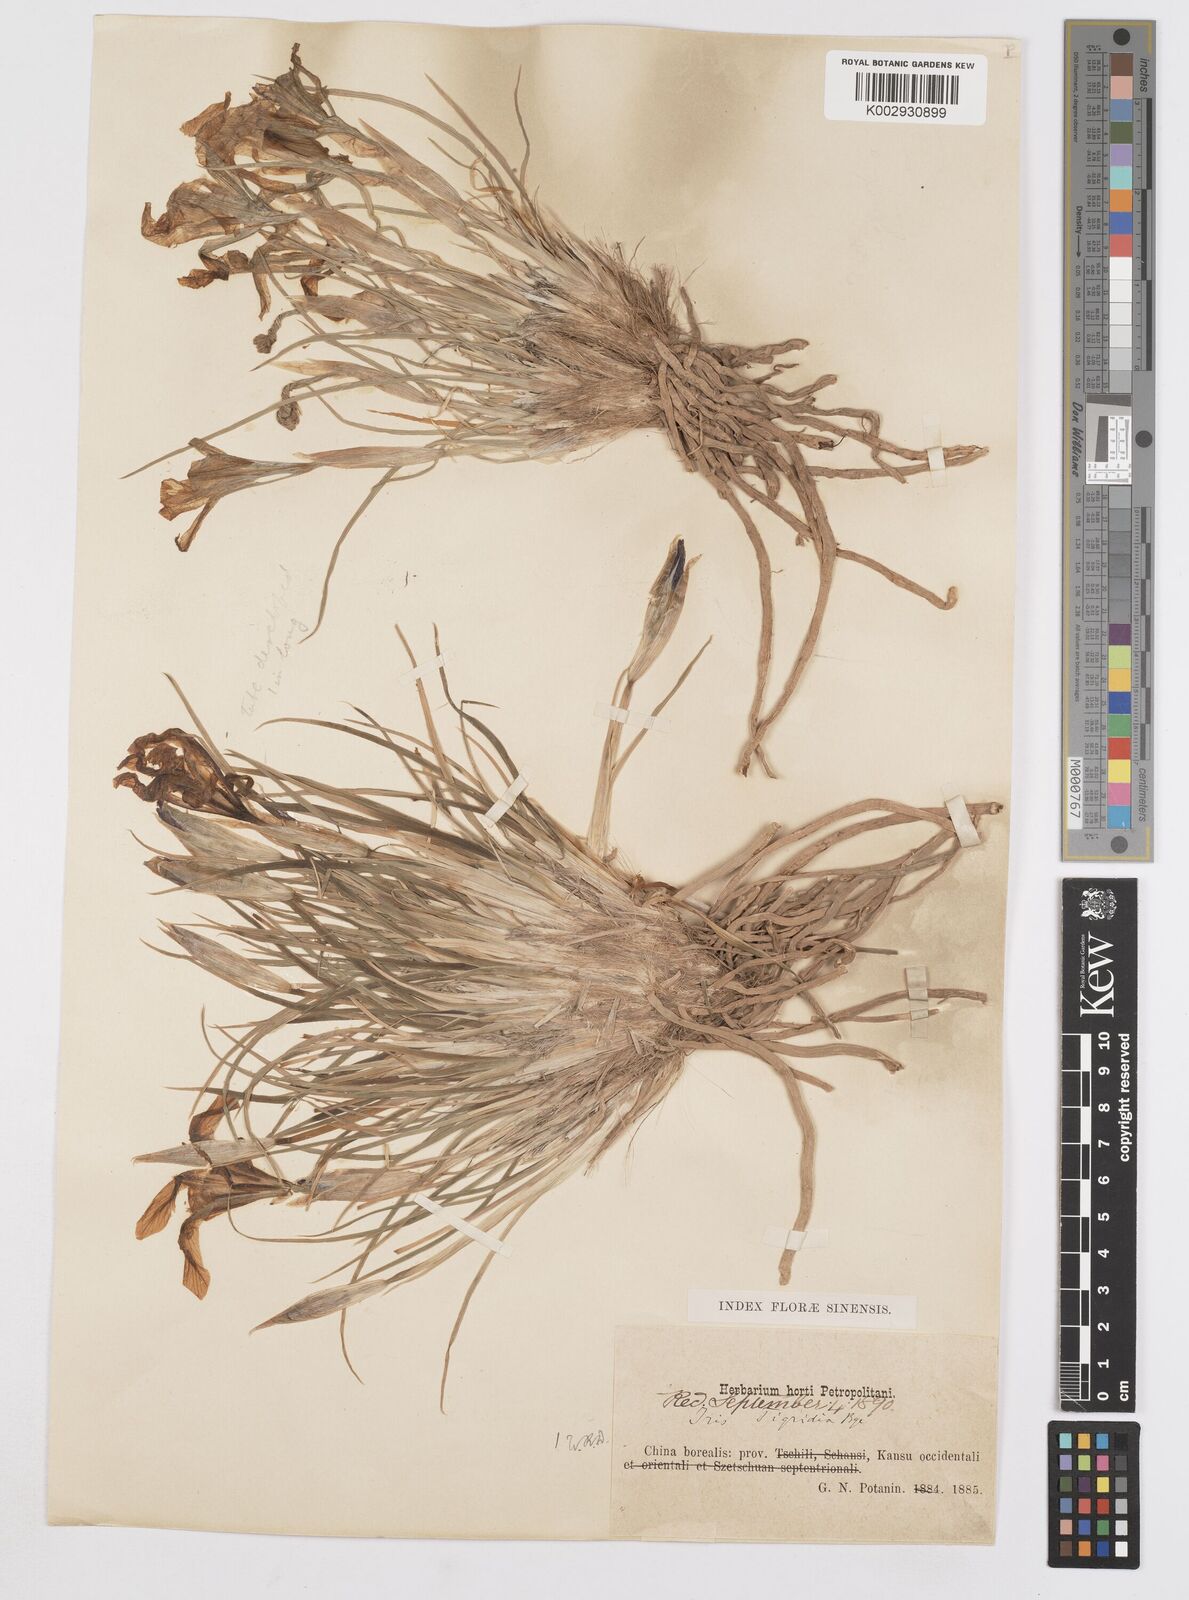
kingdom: Plantae
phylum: Tracheophyta
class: Liliopsida
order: Asparagales
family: Iridaceae
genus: Iris
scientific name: Iris tigridia
